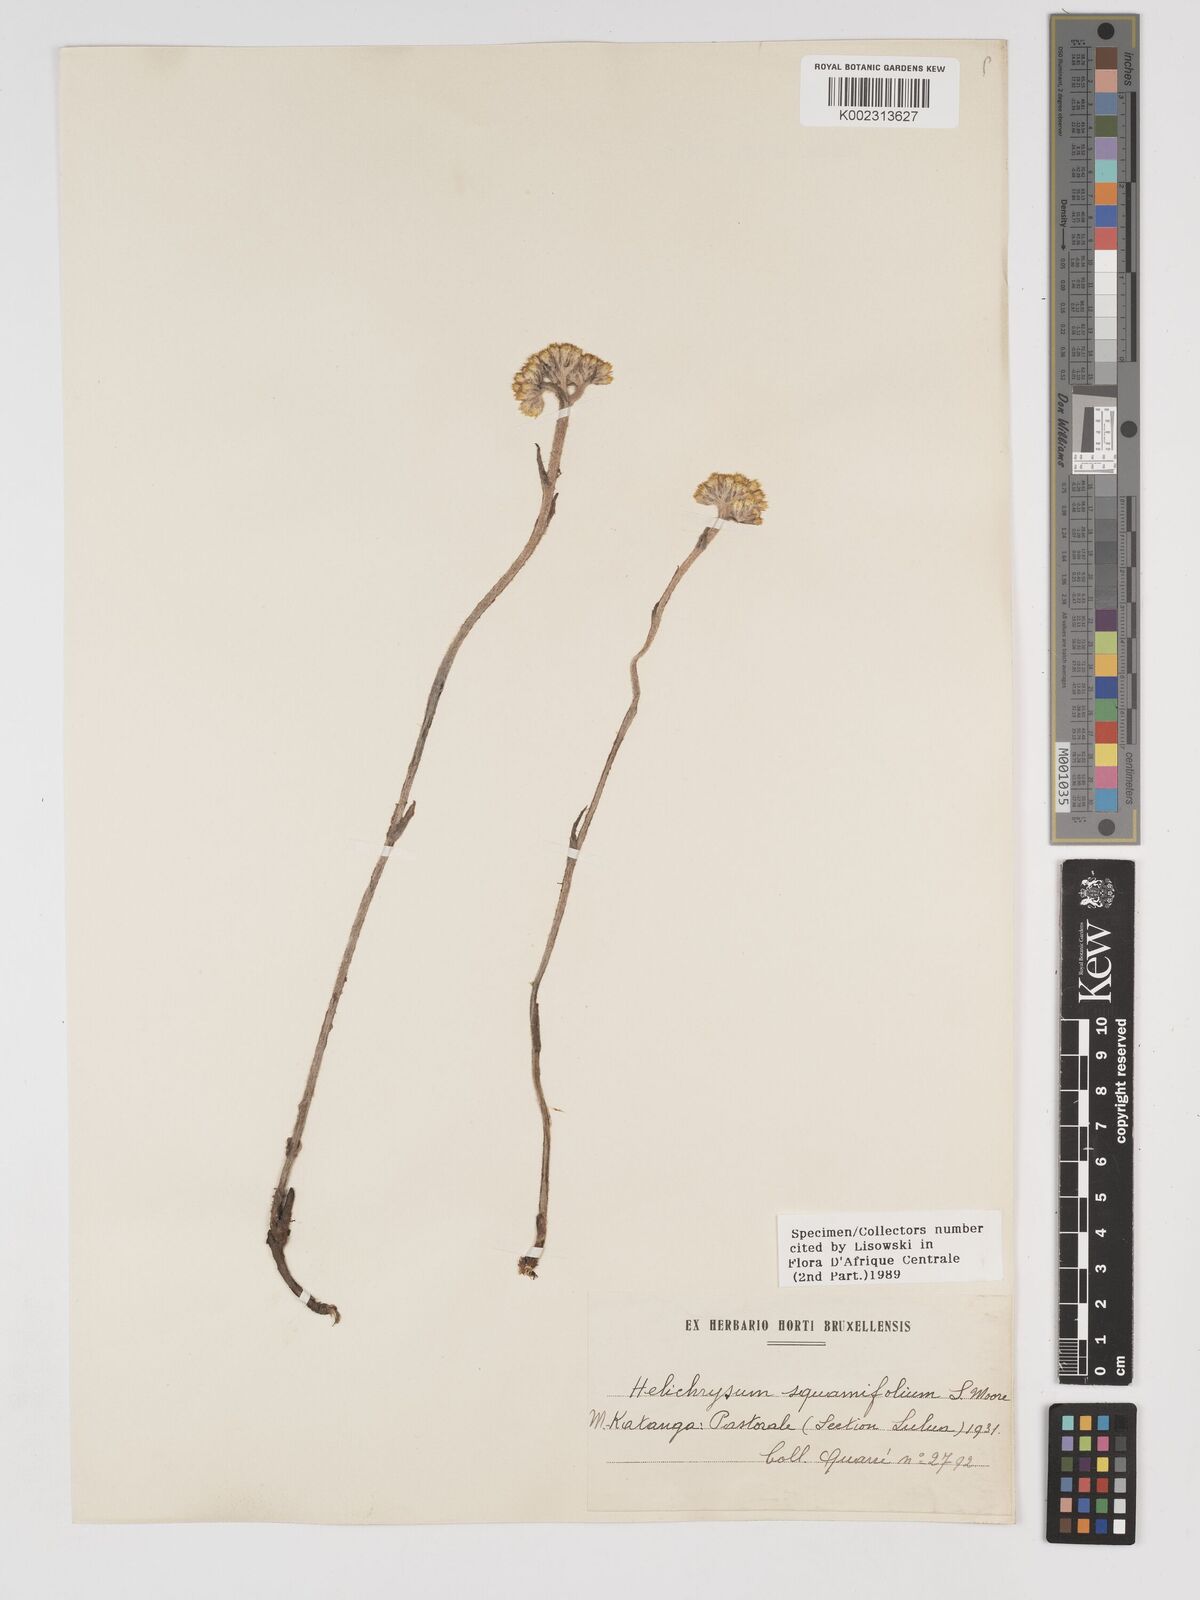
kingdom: Plantae
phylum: Tracheophyta
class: Magnoliopsida
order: Asterales
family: Asteraceae
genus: Helichrysum
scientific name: Helichrysum mechowianum
